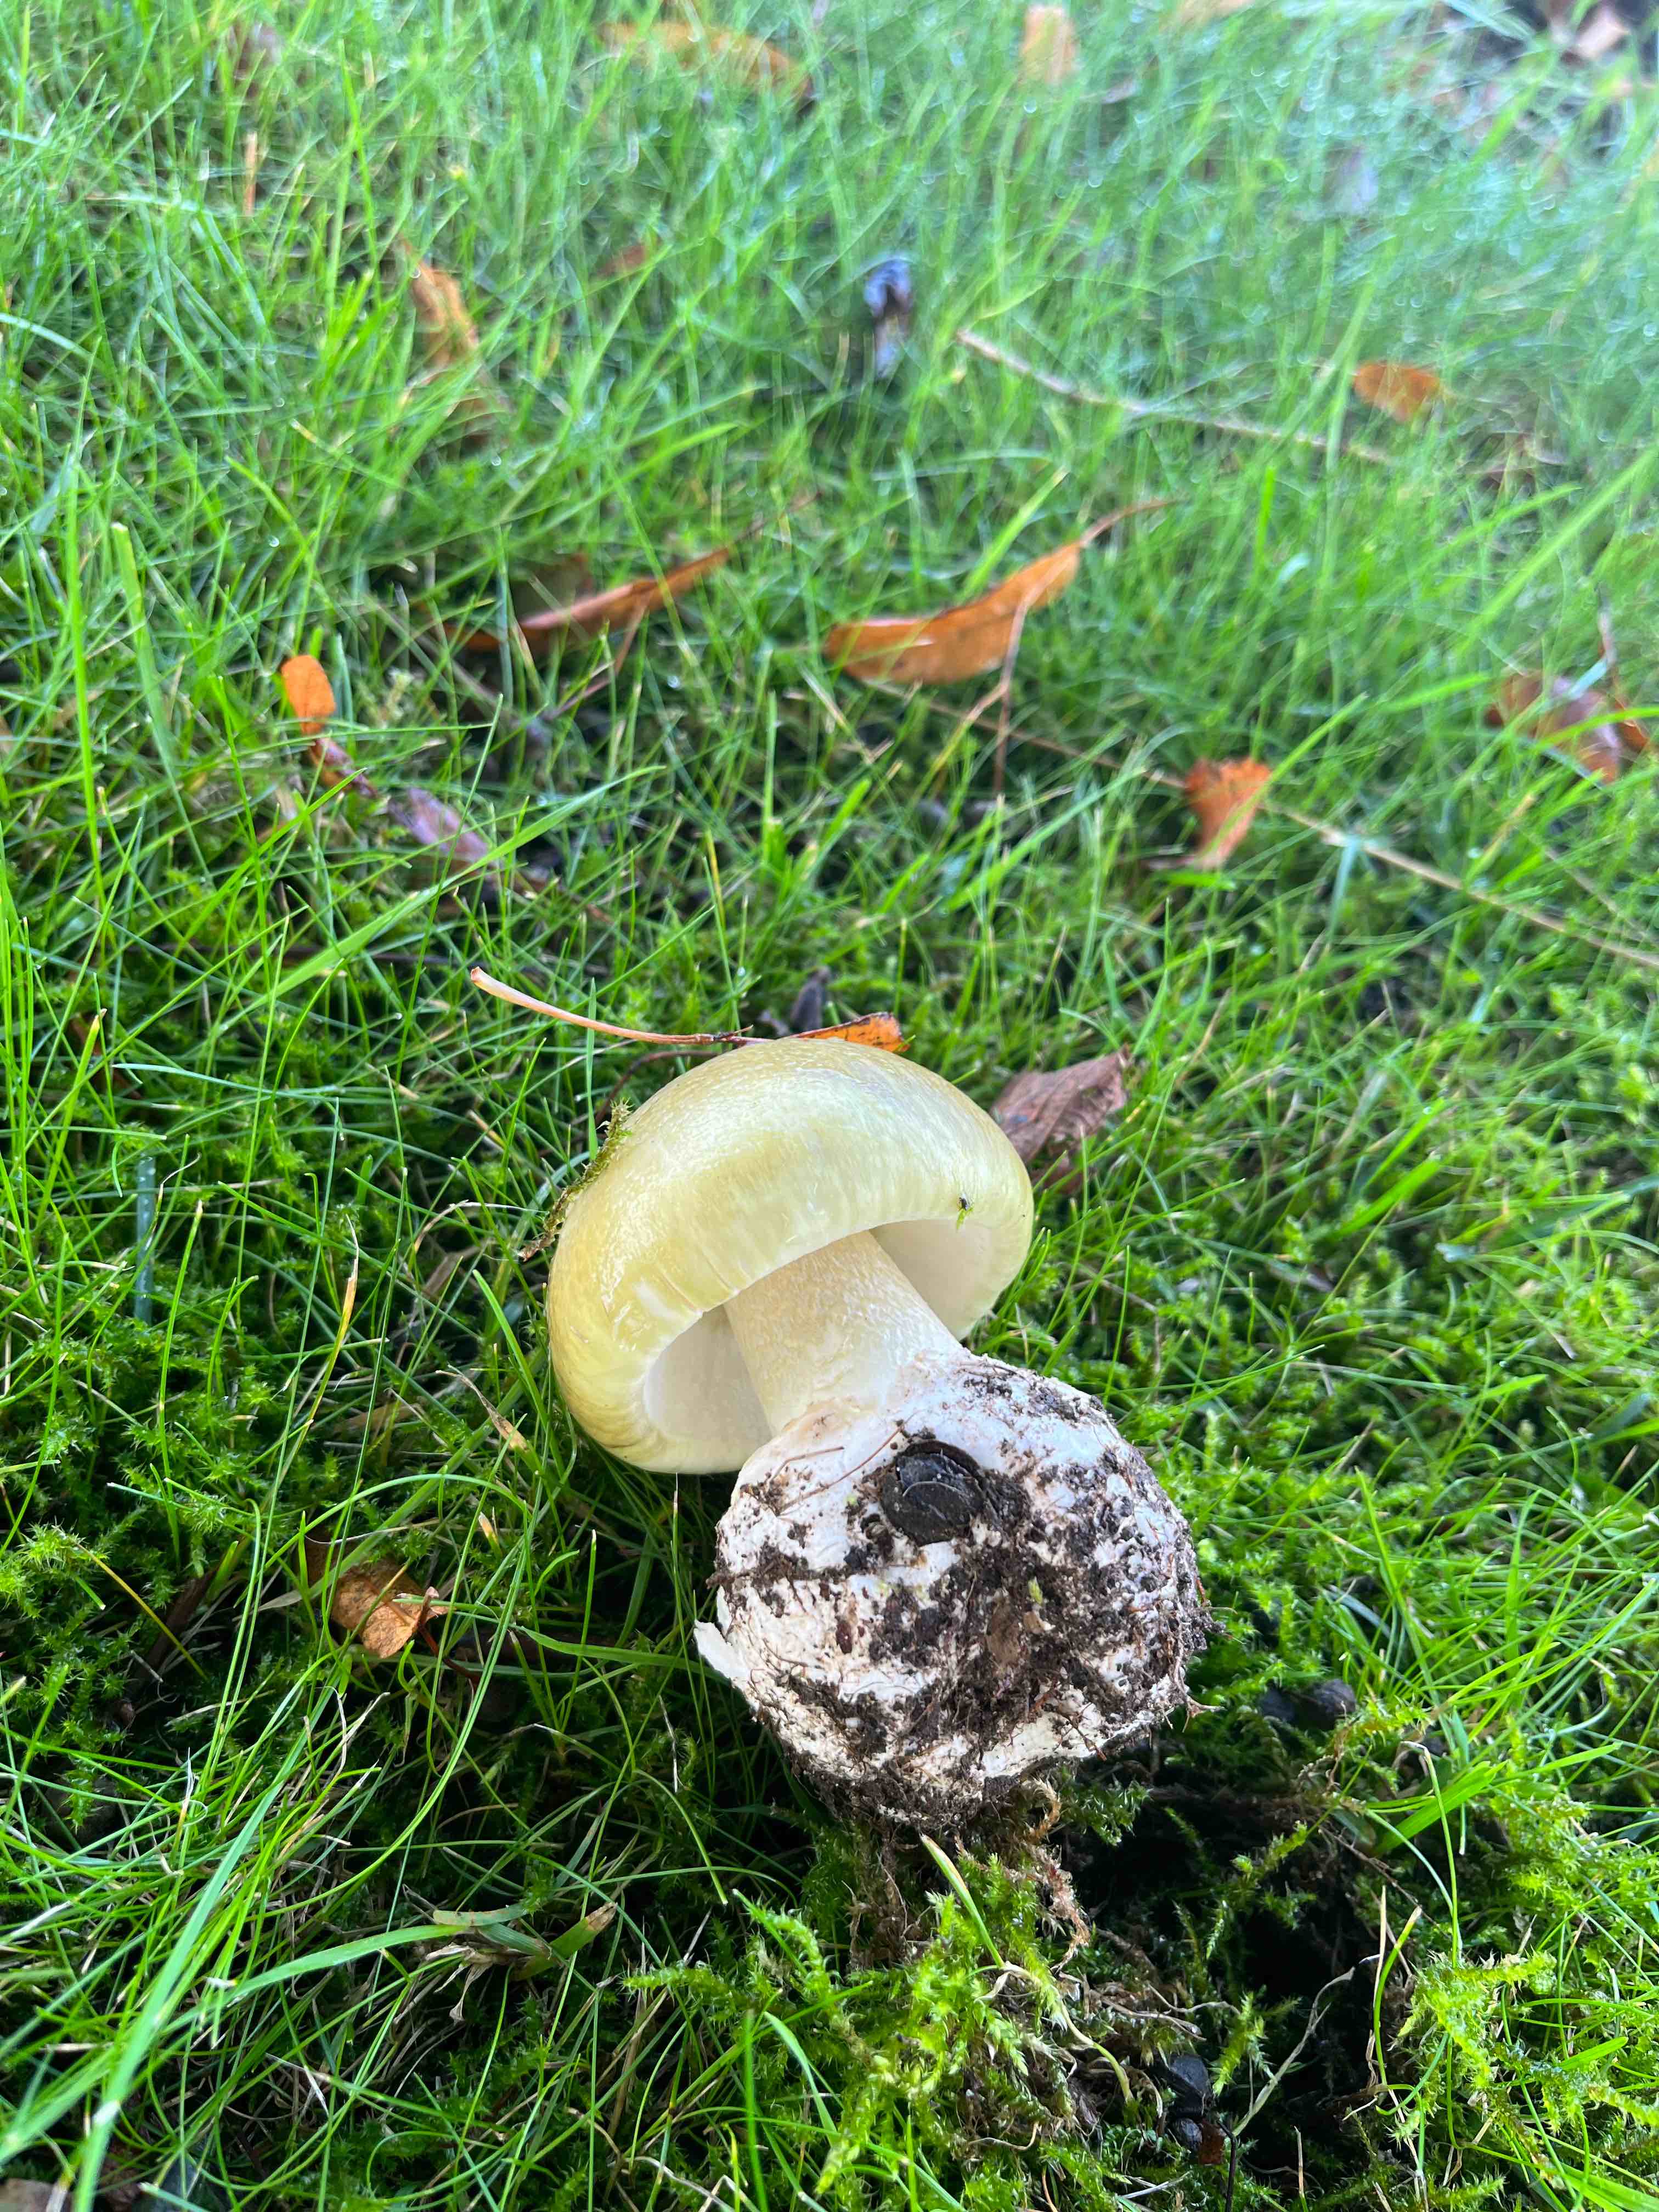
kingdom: Fungi
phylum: Basidiomycota
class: Agaricomycetes
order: Agaricales
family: Amanitaceae
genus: Amanita
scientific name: Amanita phalloides
